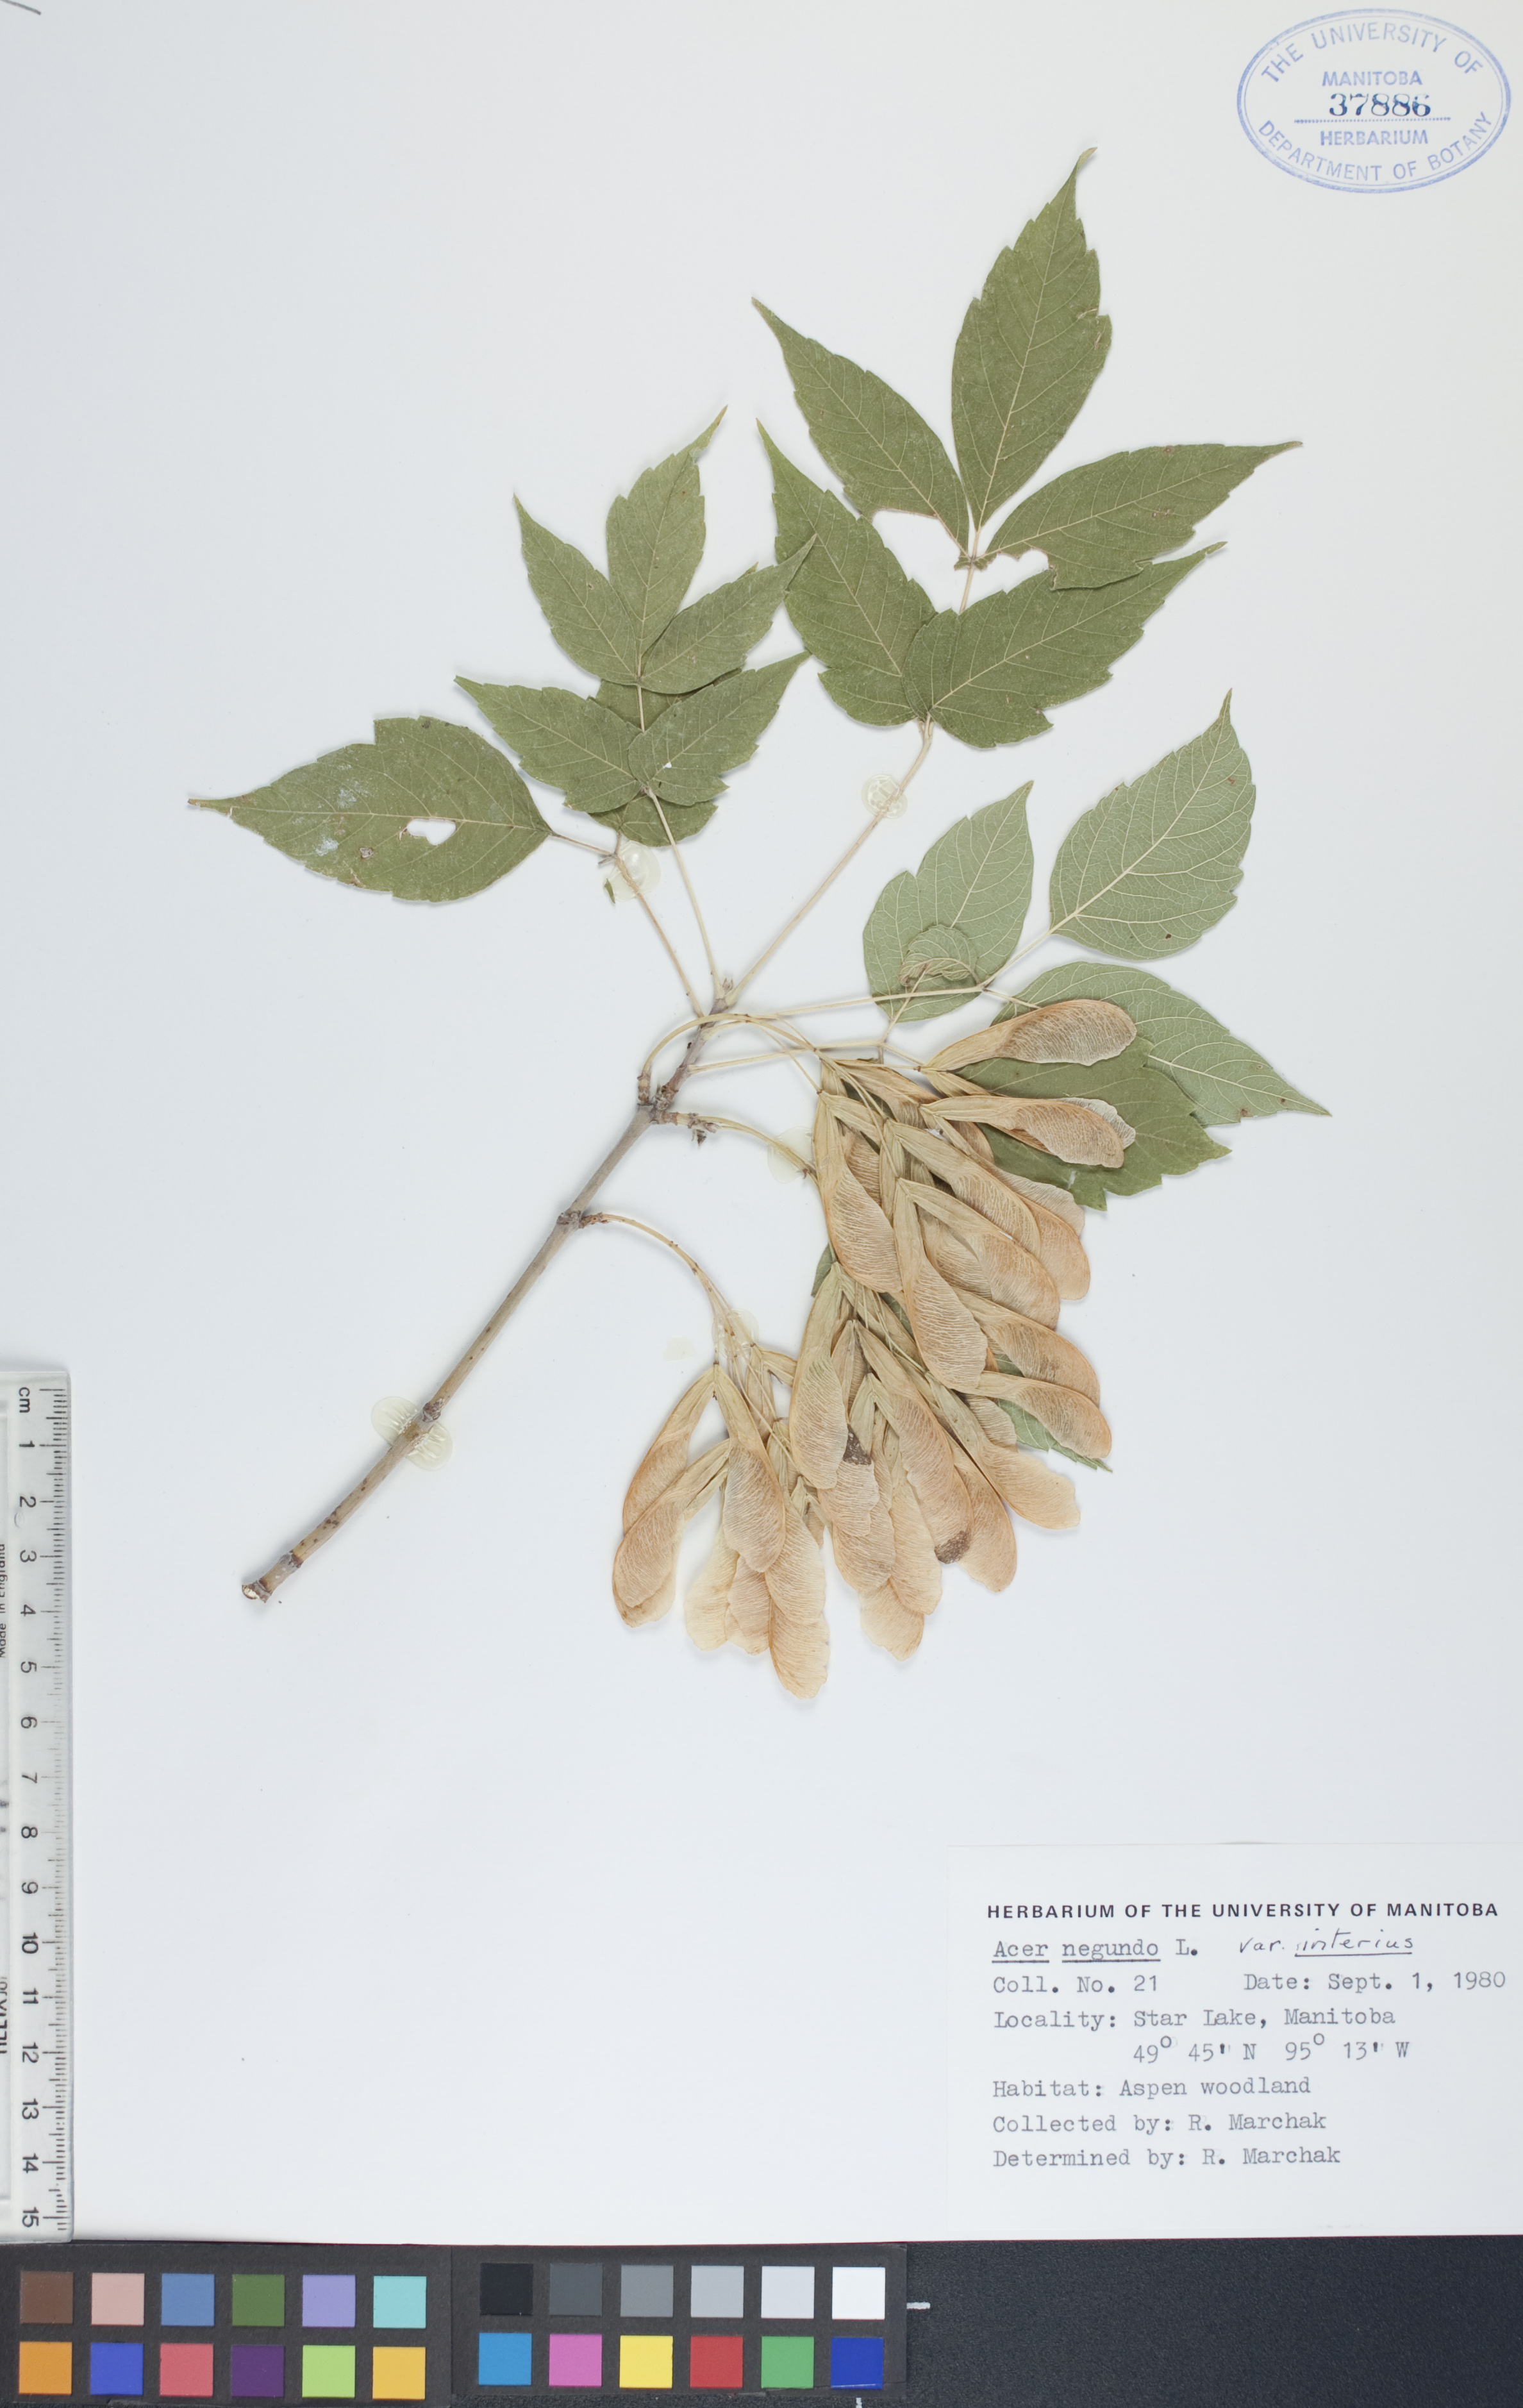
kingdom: Plantae
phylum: Tracheophyta
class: Magnoliopsida
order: Sapindales
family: Sapindaceae
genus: Acer
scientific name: Acer negundo
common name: Ashleaf maple
